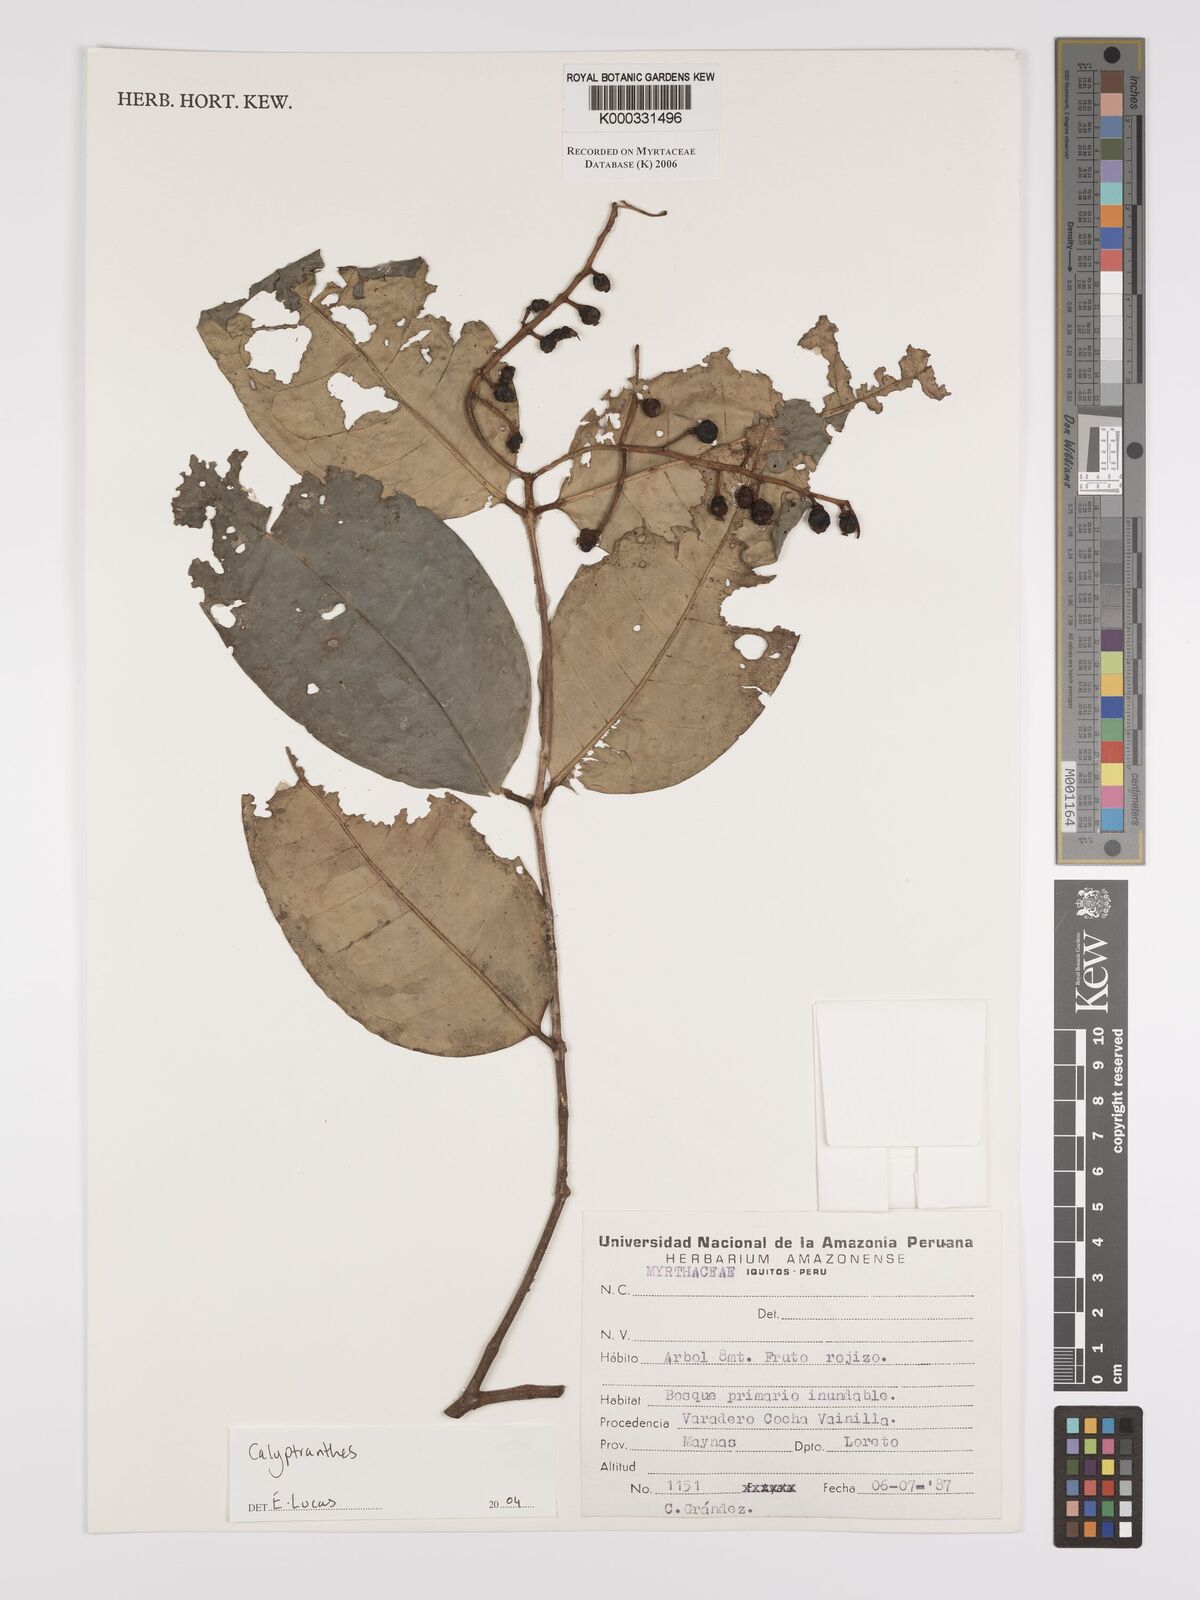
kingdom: Plantae
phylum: Tracheophyta
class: Magnoliopsida
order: Myrtales
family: Myrtaceae
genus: Calyptranthes
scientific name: Calyptranthes
